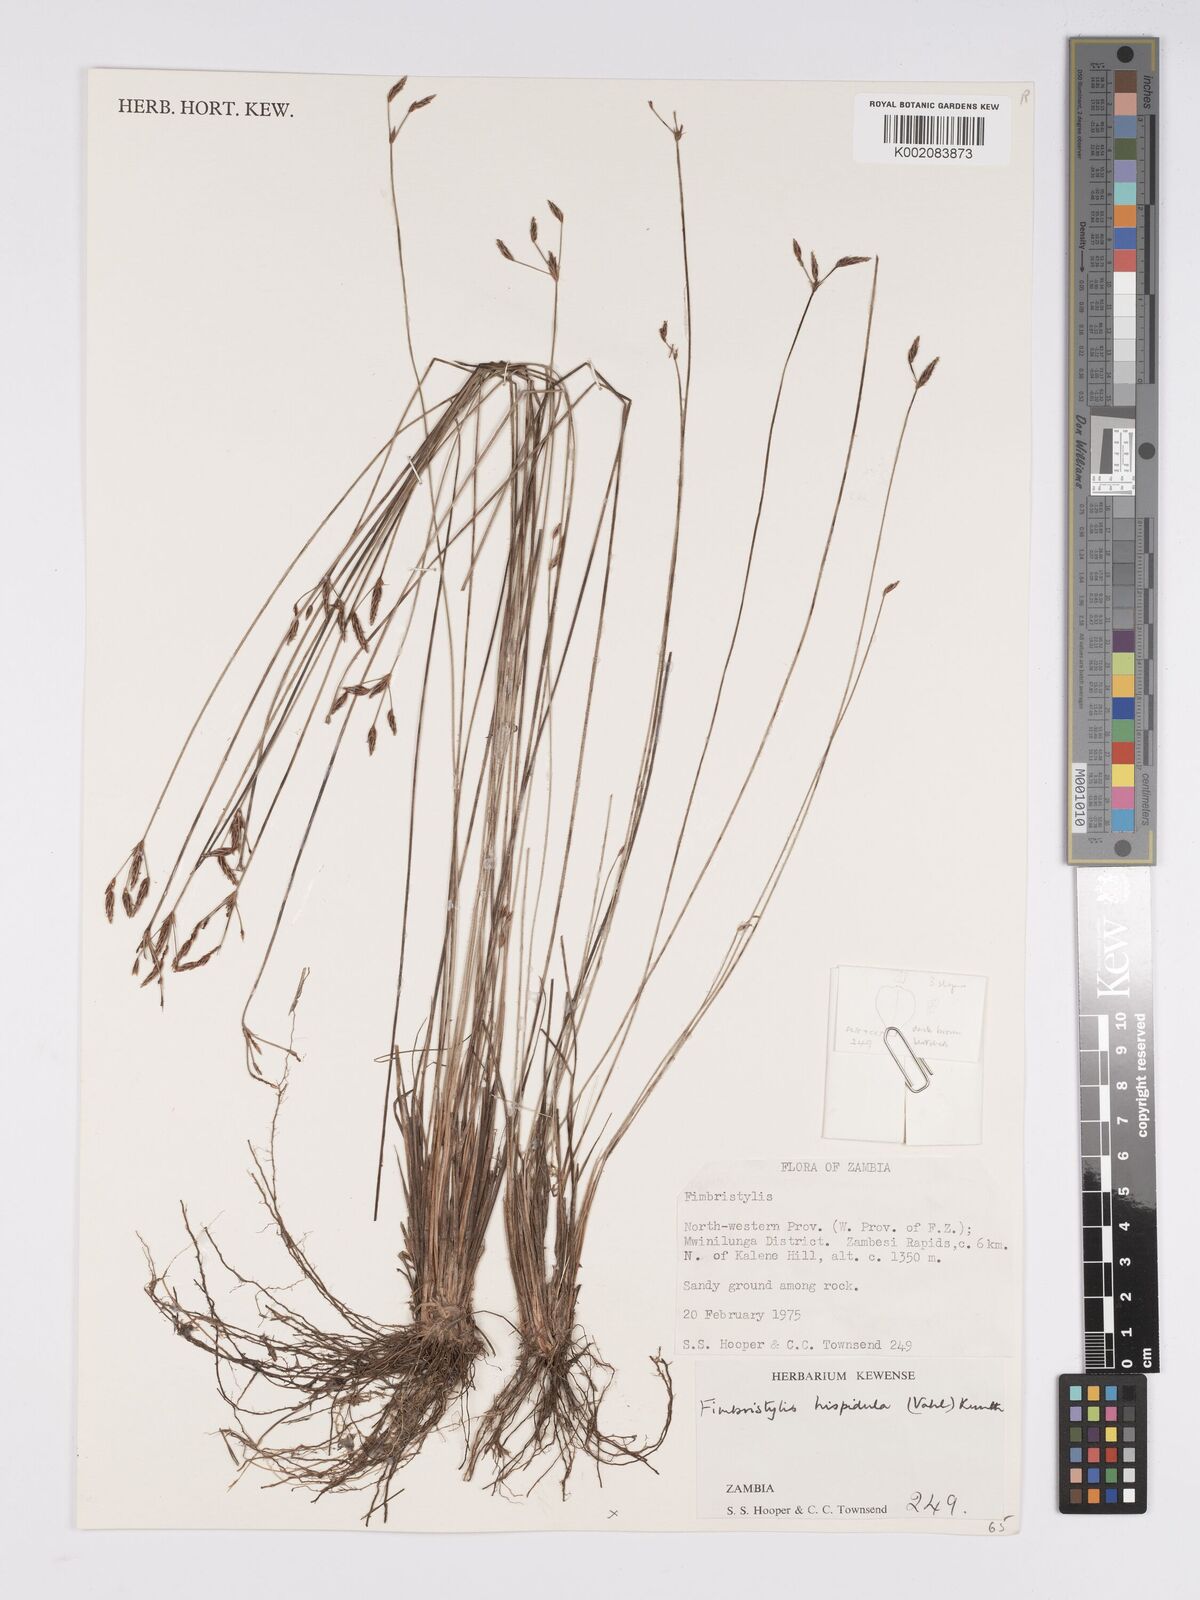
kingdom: Plantae
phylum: Tracheophyta
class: Liliopsida
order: Poales
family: Cyperaceae
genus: Bulbostylis
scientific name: Bulbostylis hispidula
